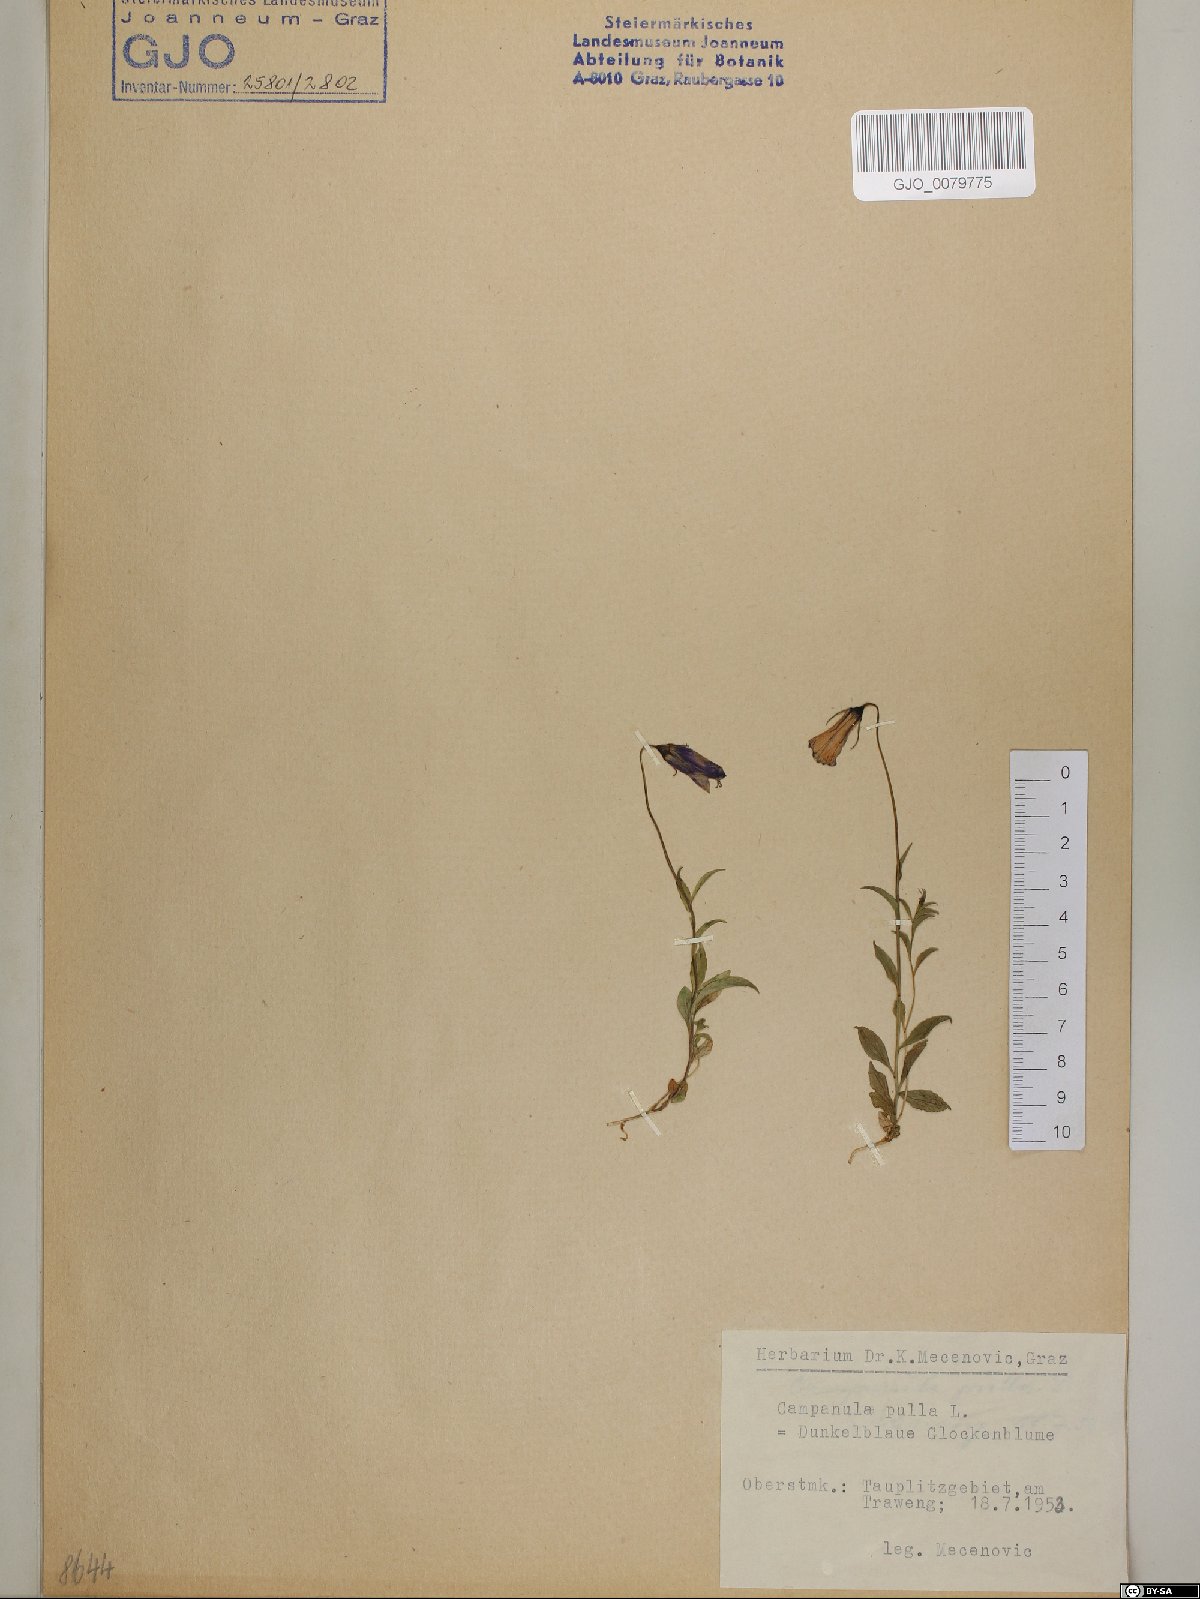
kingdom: Plantae
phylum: Tracheophyta
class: Magnoliopsida
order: Asterales
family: Campanulaceae
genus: Campanula
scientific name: Campanula pulla
